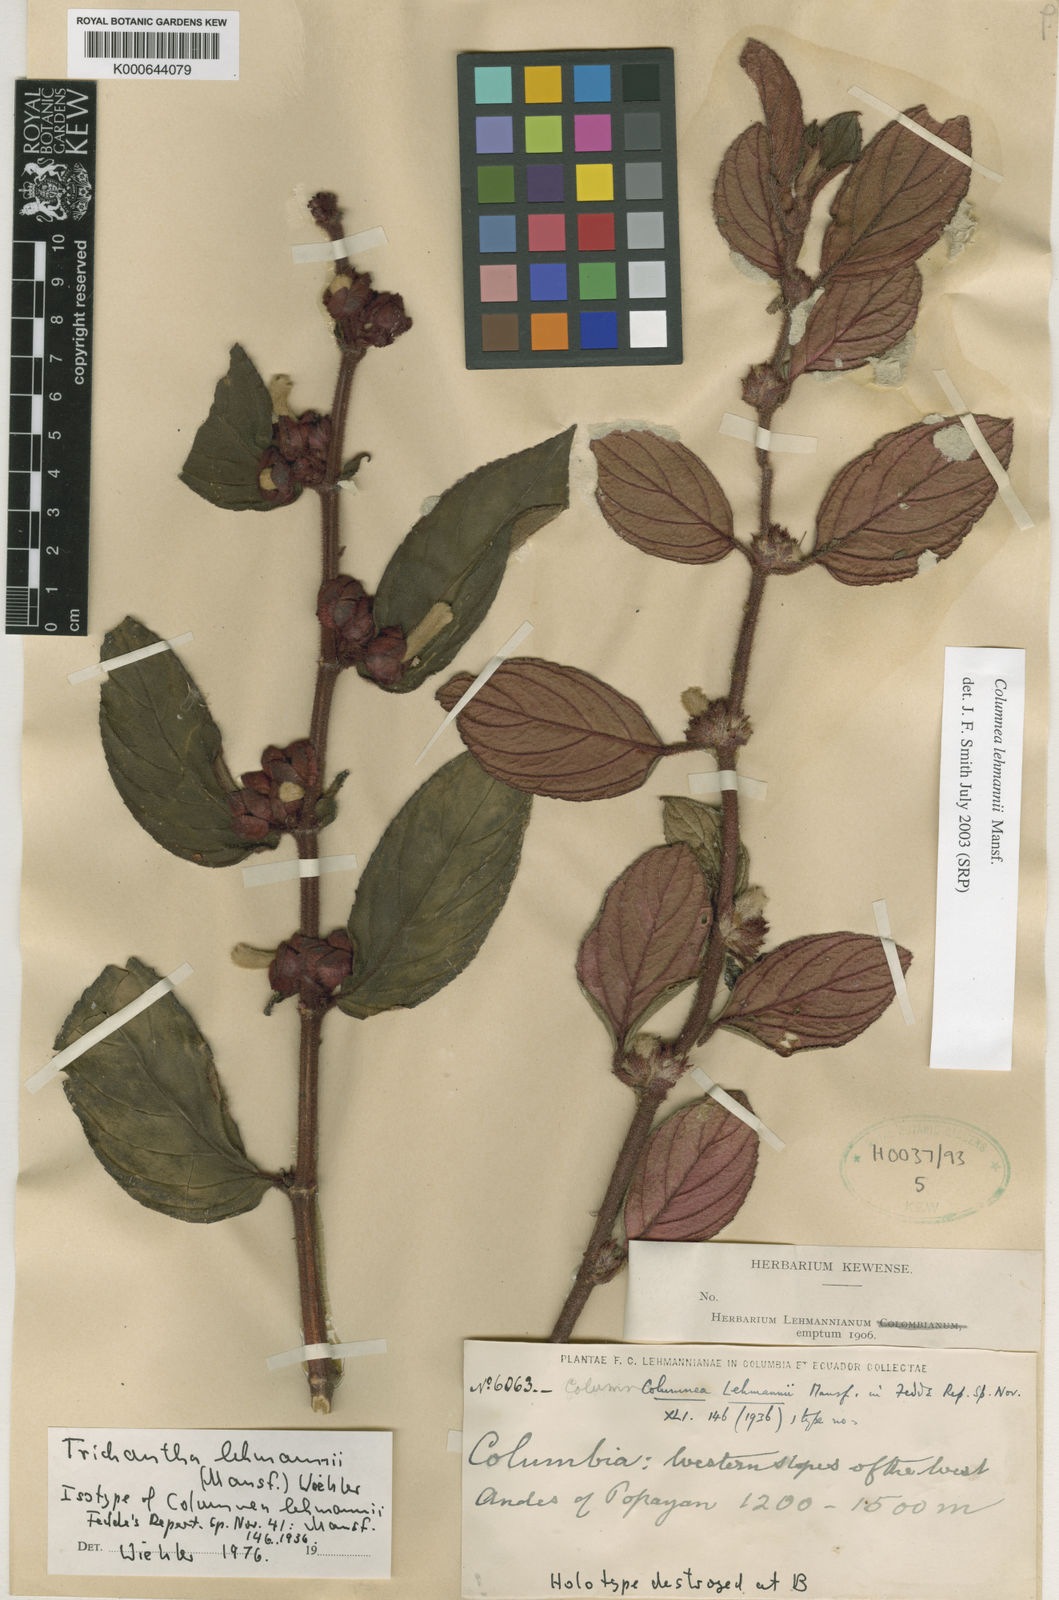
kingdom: Plantae
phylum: Tracheophyta
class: Magnoliopsida
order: Lamiales
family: Gesneriaceae
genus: Columnea
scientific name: Columnea lehmannii
